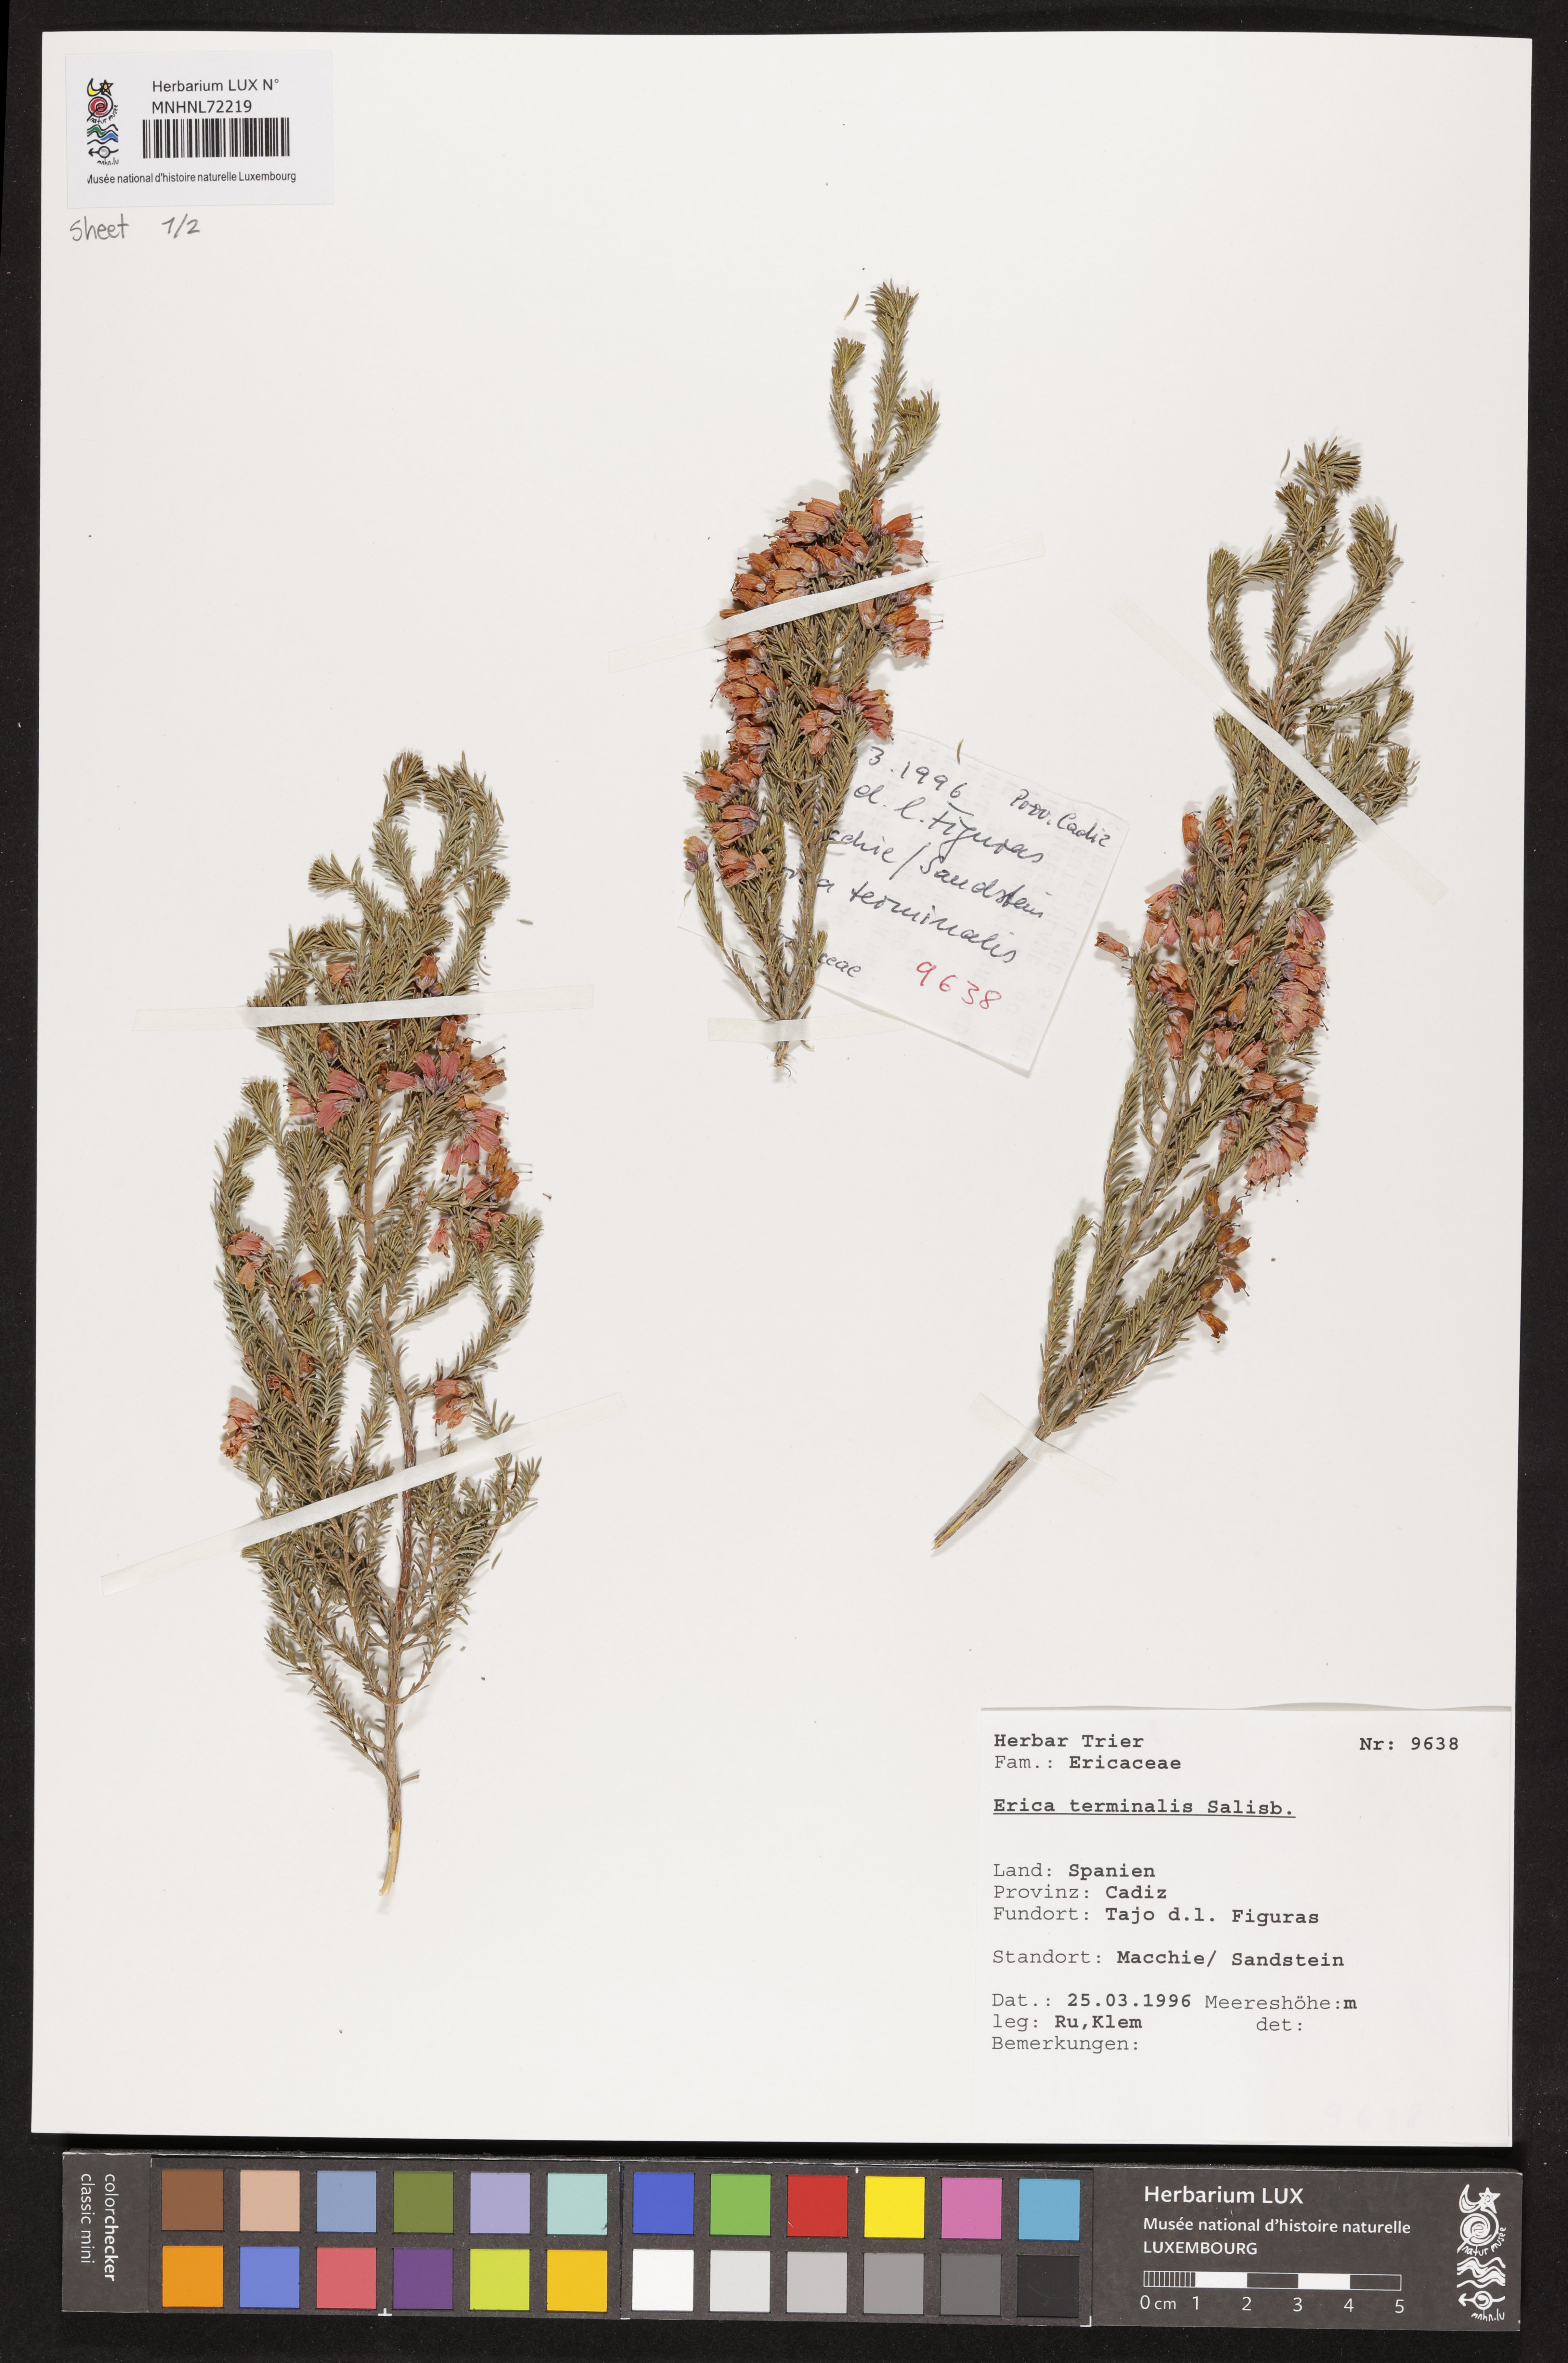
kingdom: Plantae
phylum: Tracheophyta
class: Magnoliopsida
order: Ericales
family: Ericaceae
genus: Erica
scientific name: Erica terminalis
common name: Corsican heath
